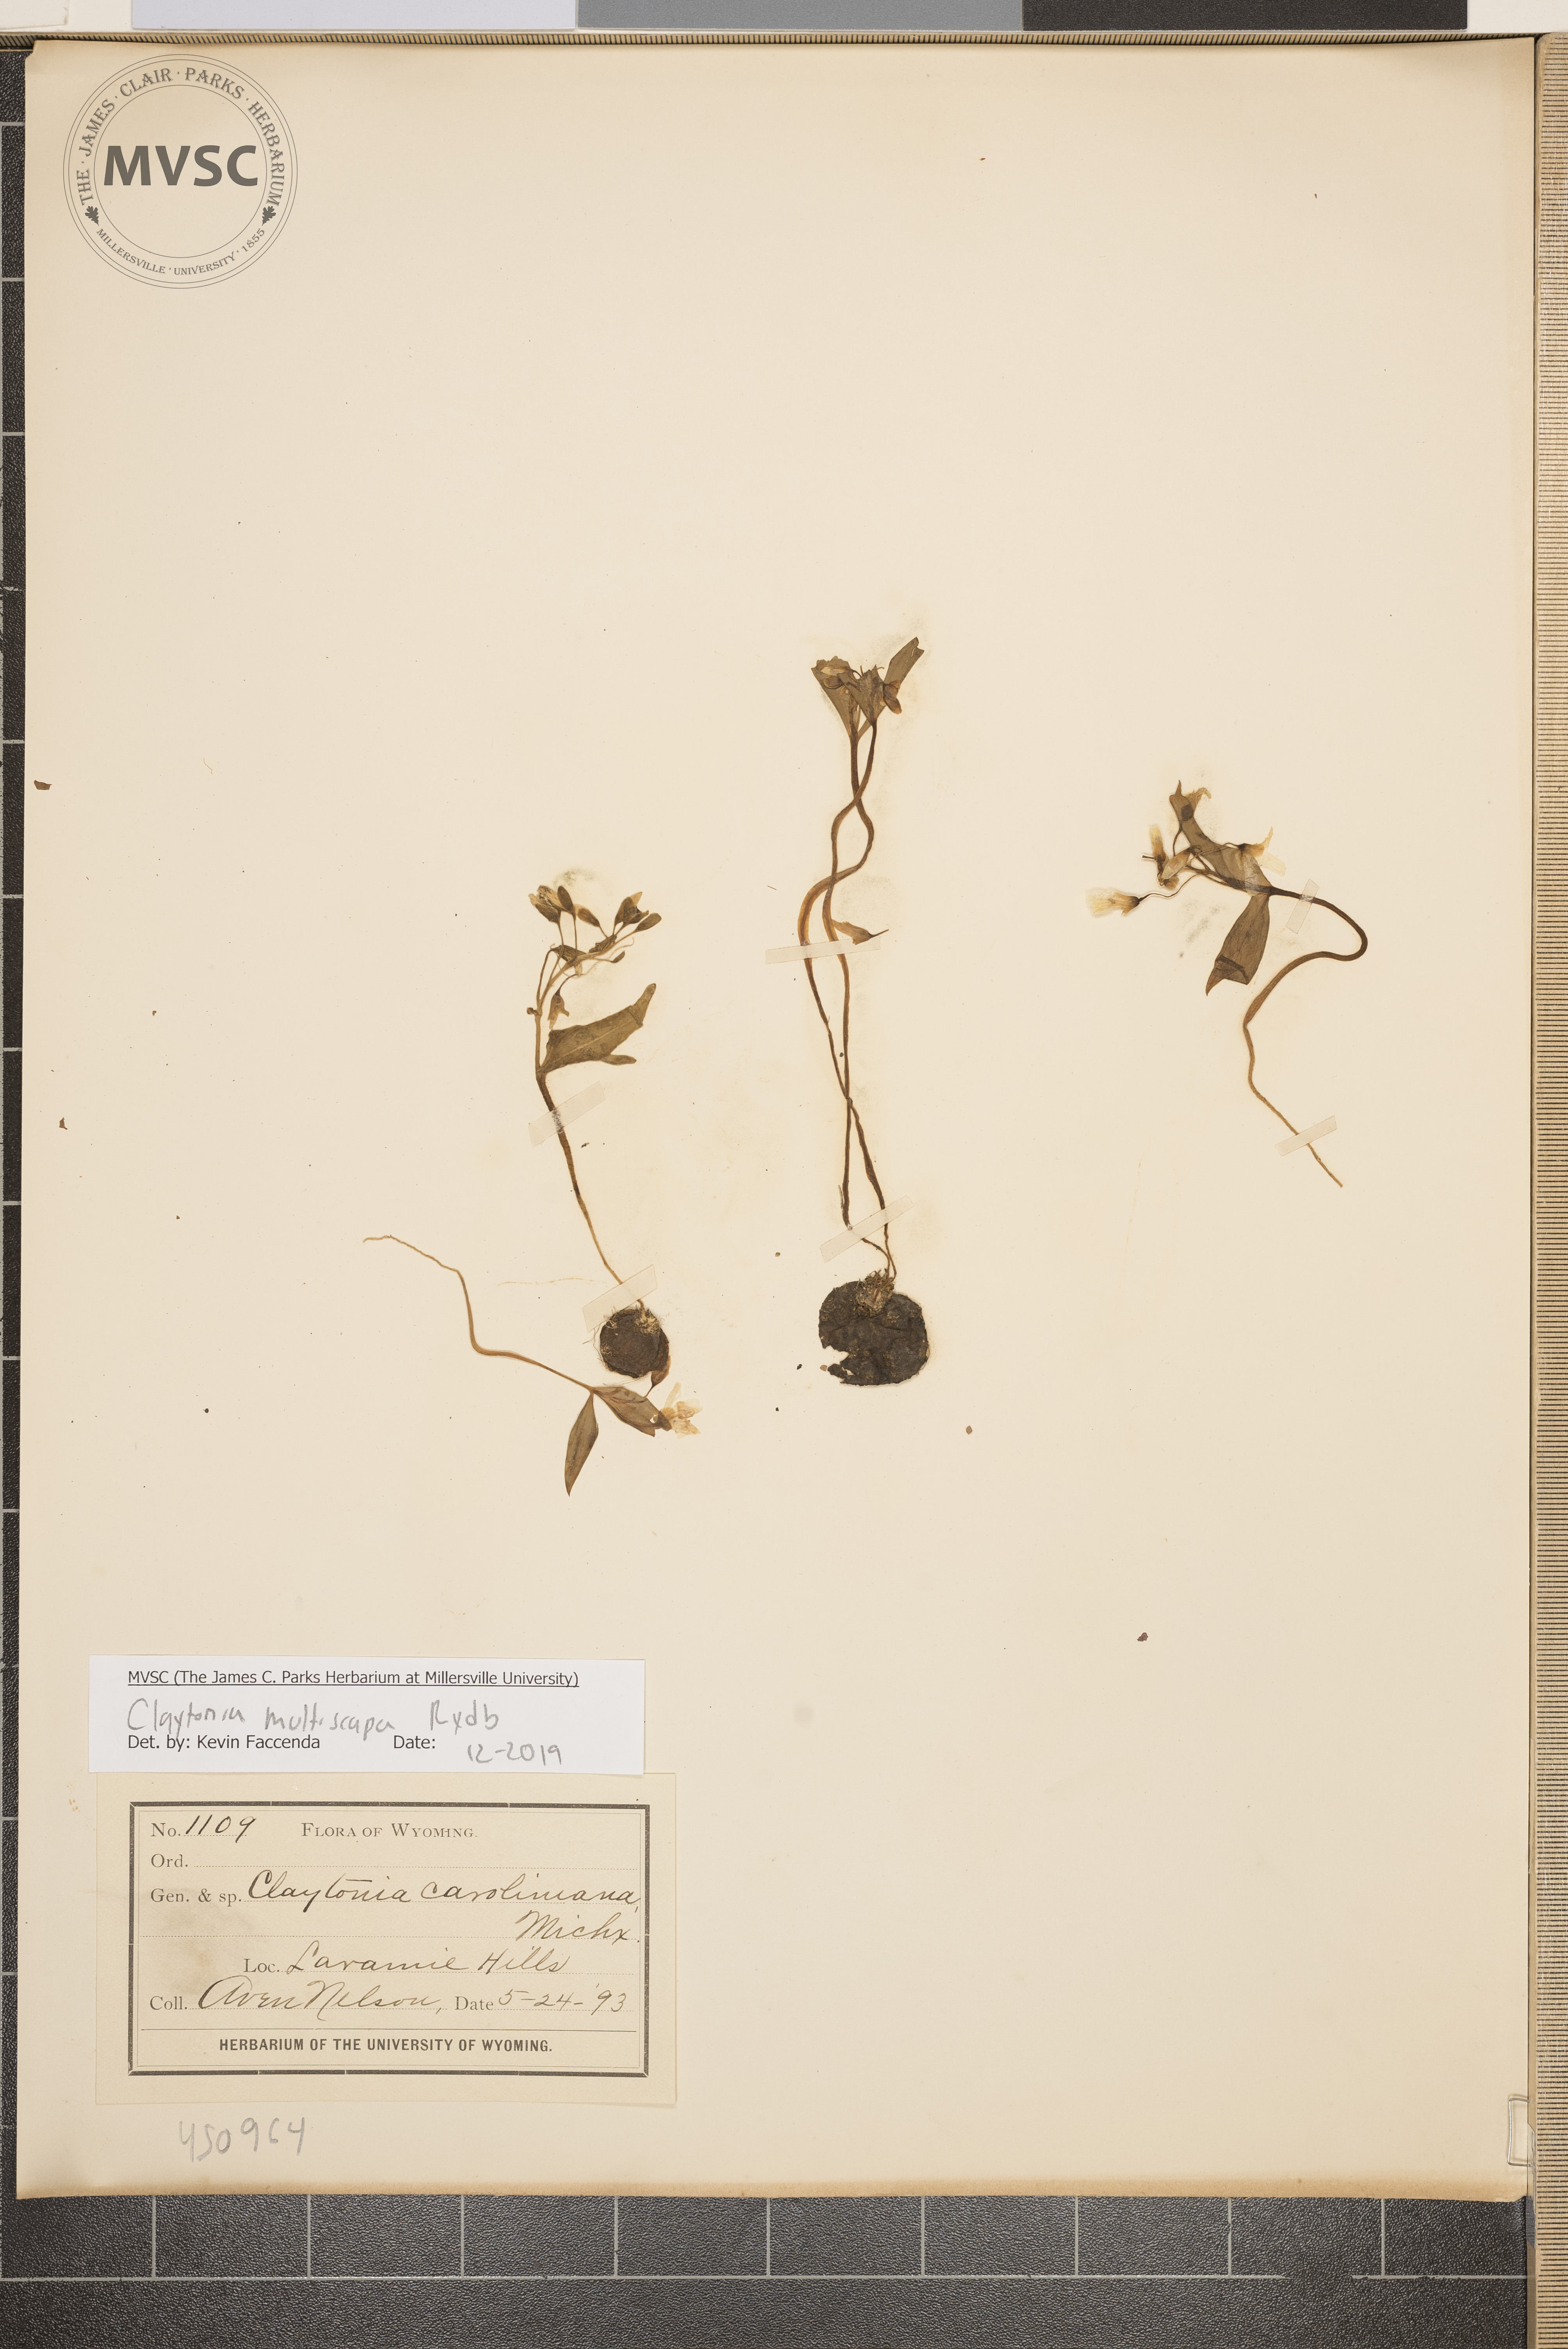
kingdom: Plantae
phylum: Tracheophyta
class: Magnoliopsida
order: Caryophyllales
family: Montiaceae
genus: Claytonia
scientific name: Claytonia multiscapa
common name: Lanceleaf springbeauty
